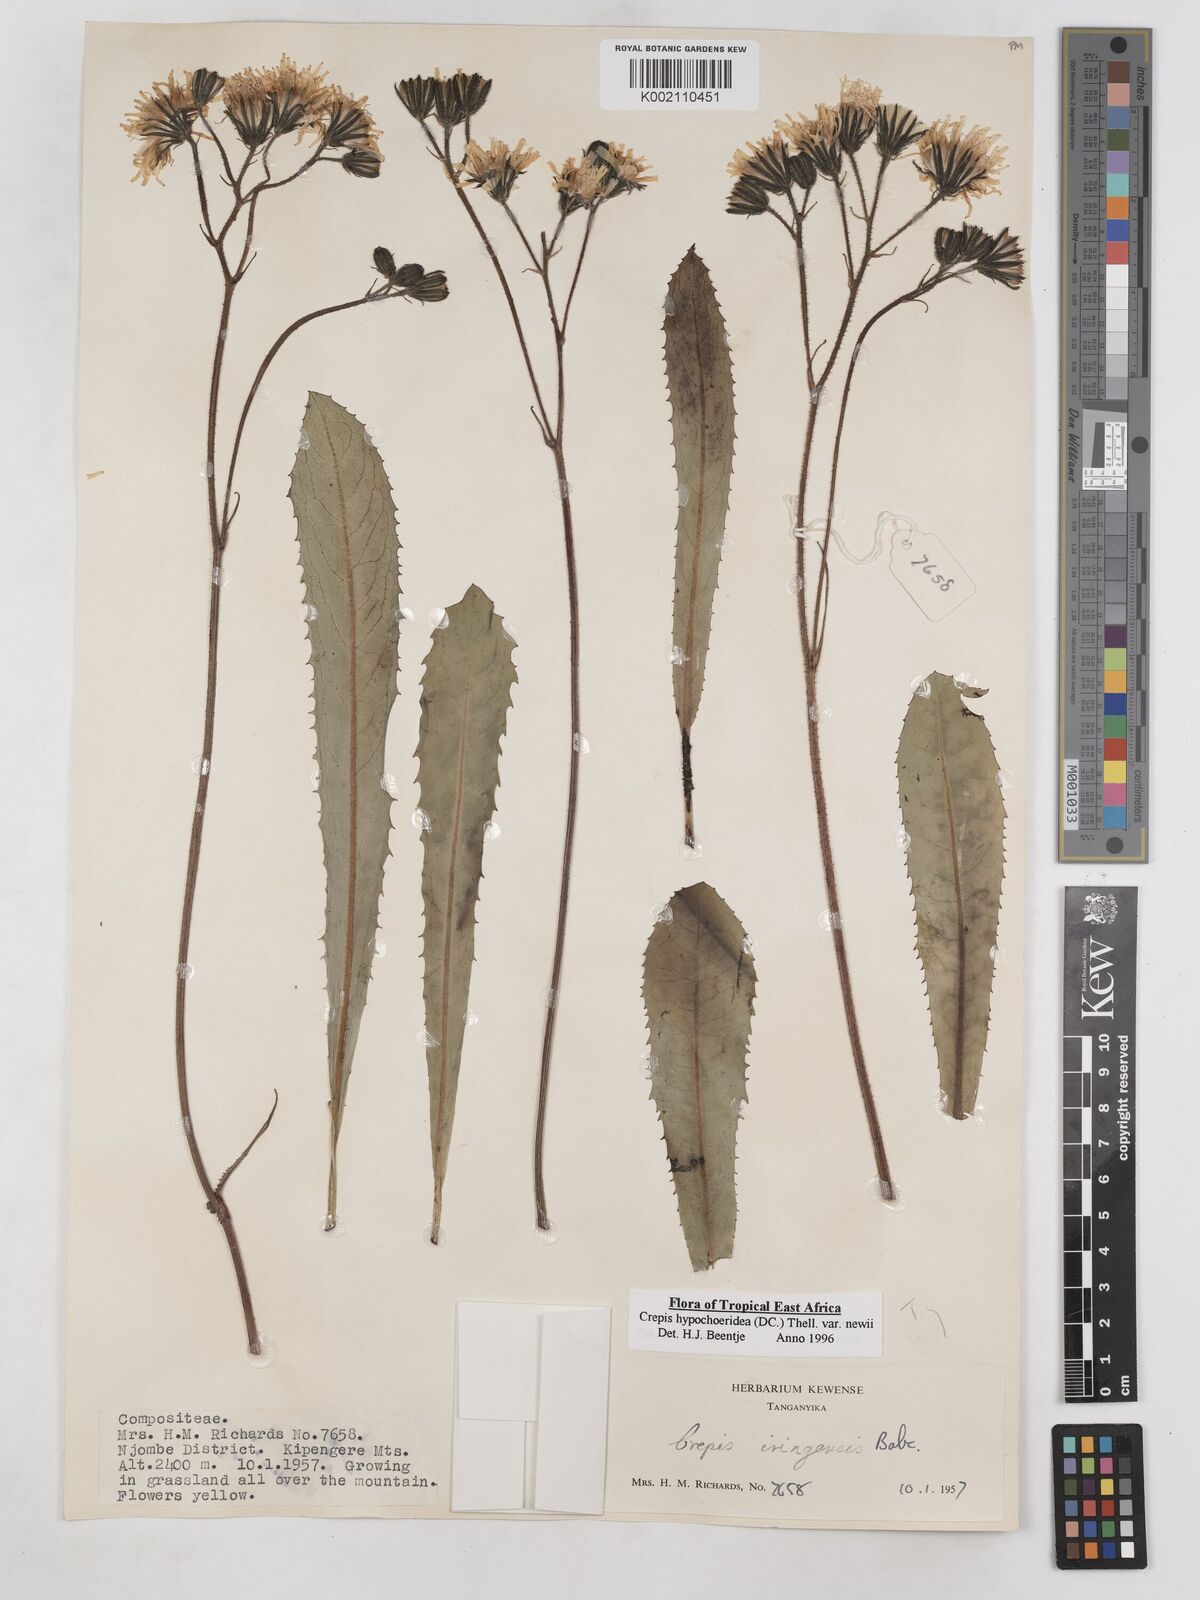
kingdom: Plantae
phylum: Tracheophyta
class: Magnoliopsida
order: Asterales
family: Asteraceae
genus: Crepis
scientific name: Crepis hypochoeridea
